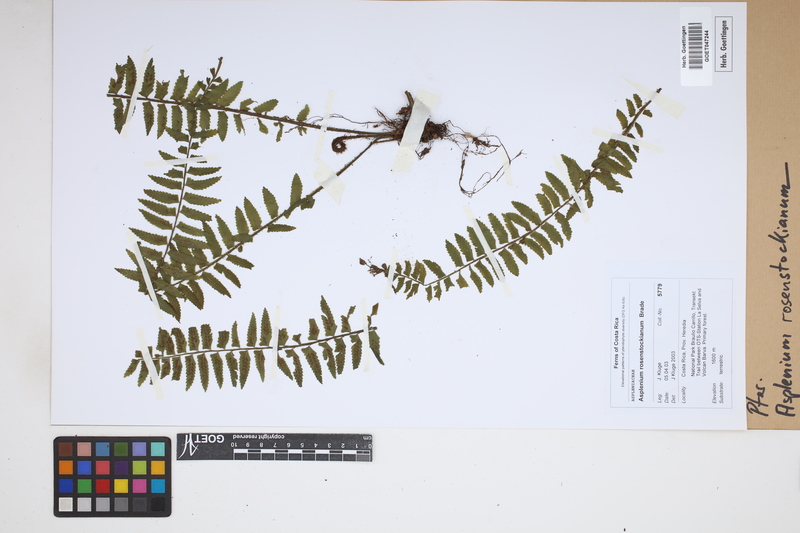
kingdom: Plantae
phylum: Tracheophyta
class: Polypodiopsida
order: Polypodiales
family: Aspleniaceae
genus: Asplenium
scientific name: Asplenium rosenstockianum
